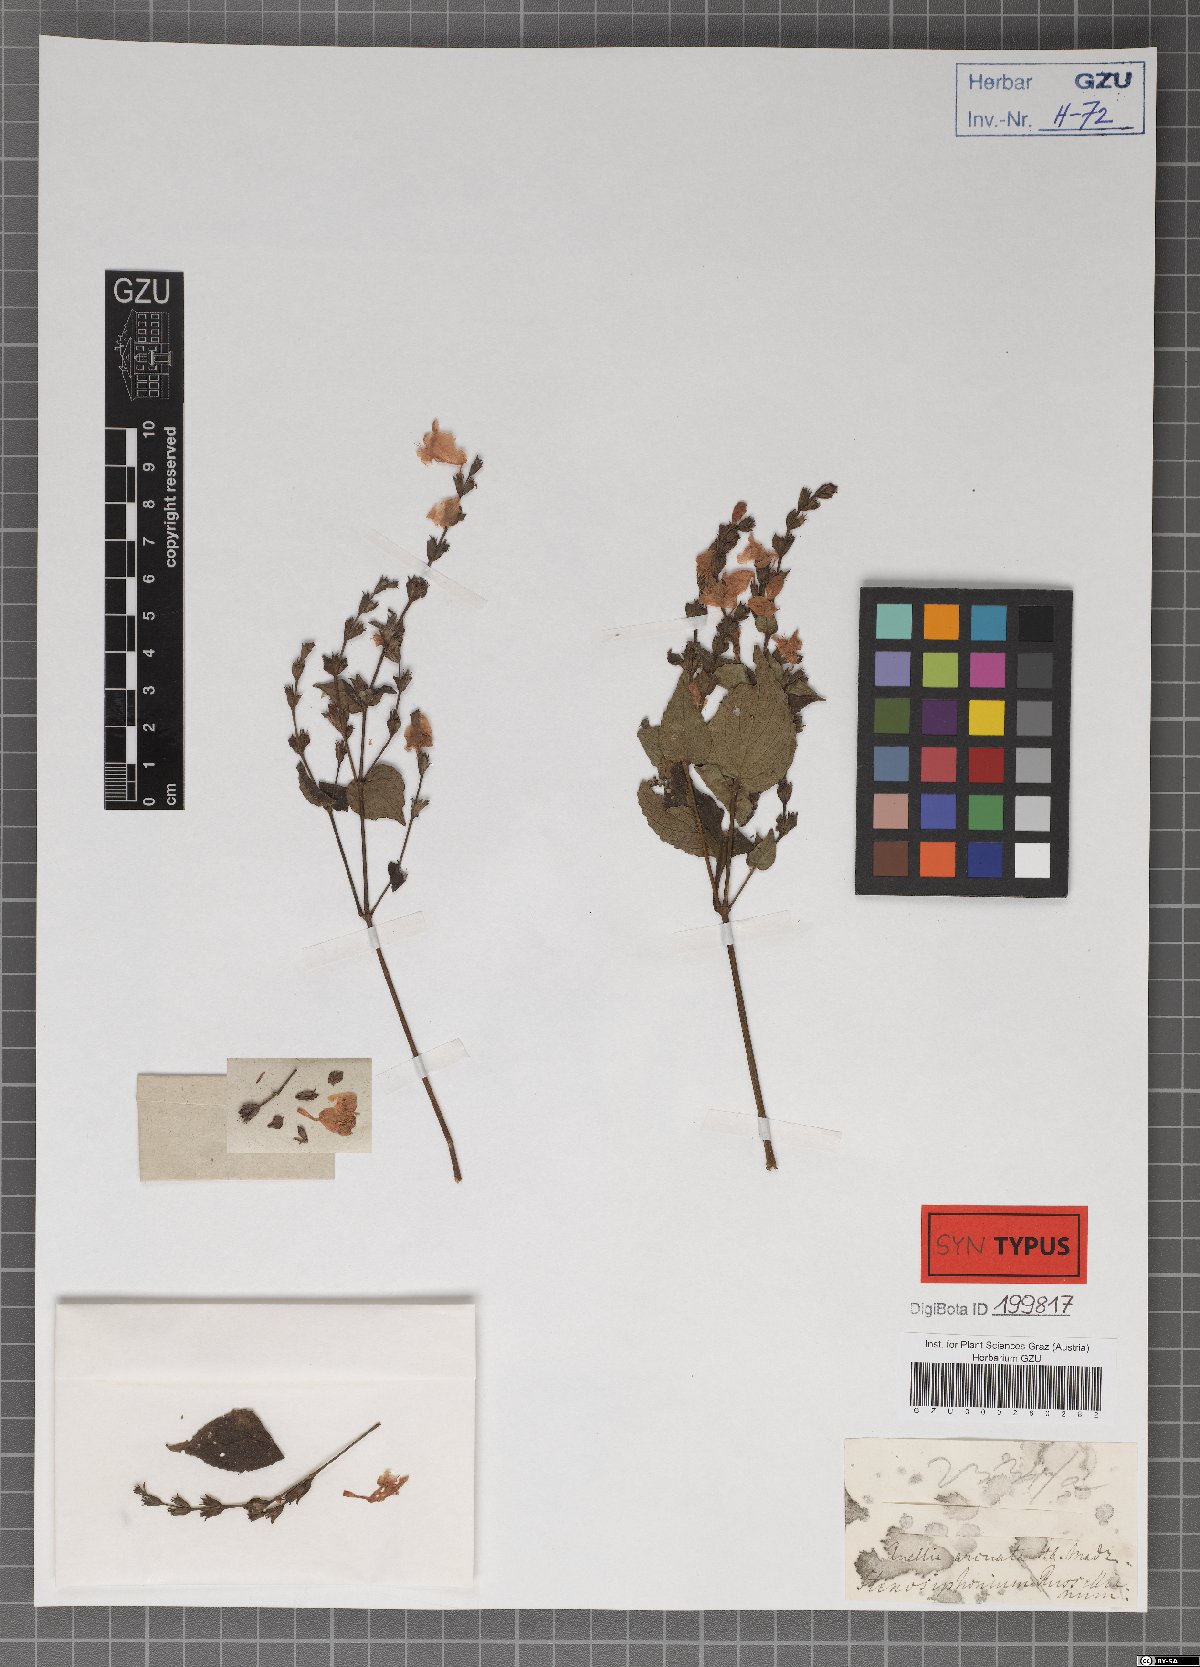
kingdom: Plantae
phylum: Tracheophyta
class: Magnoliopsida
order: Lamiales
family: Acanthaceae
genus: Strobilanthes
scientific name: Strobilanthes cordifolia
